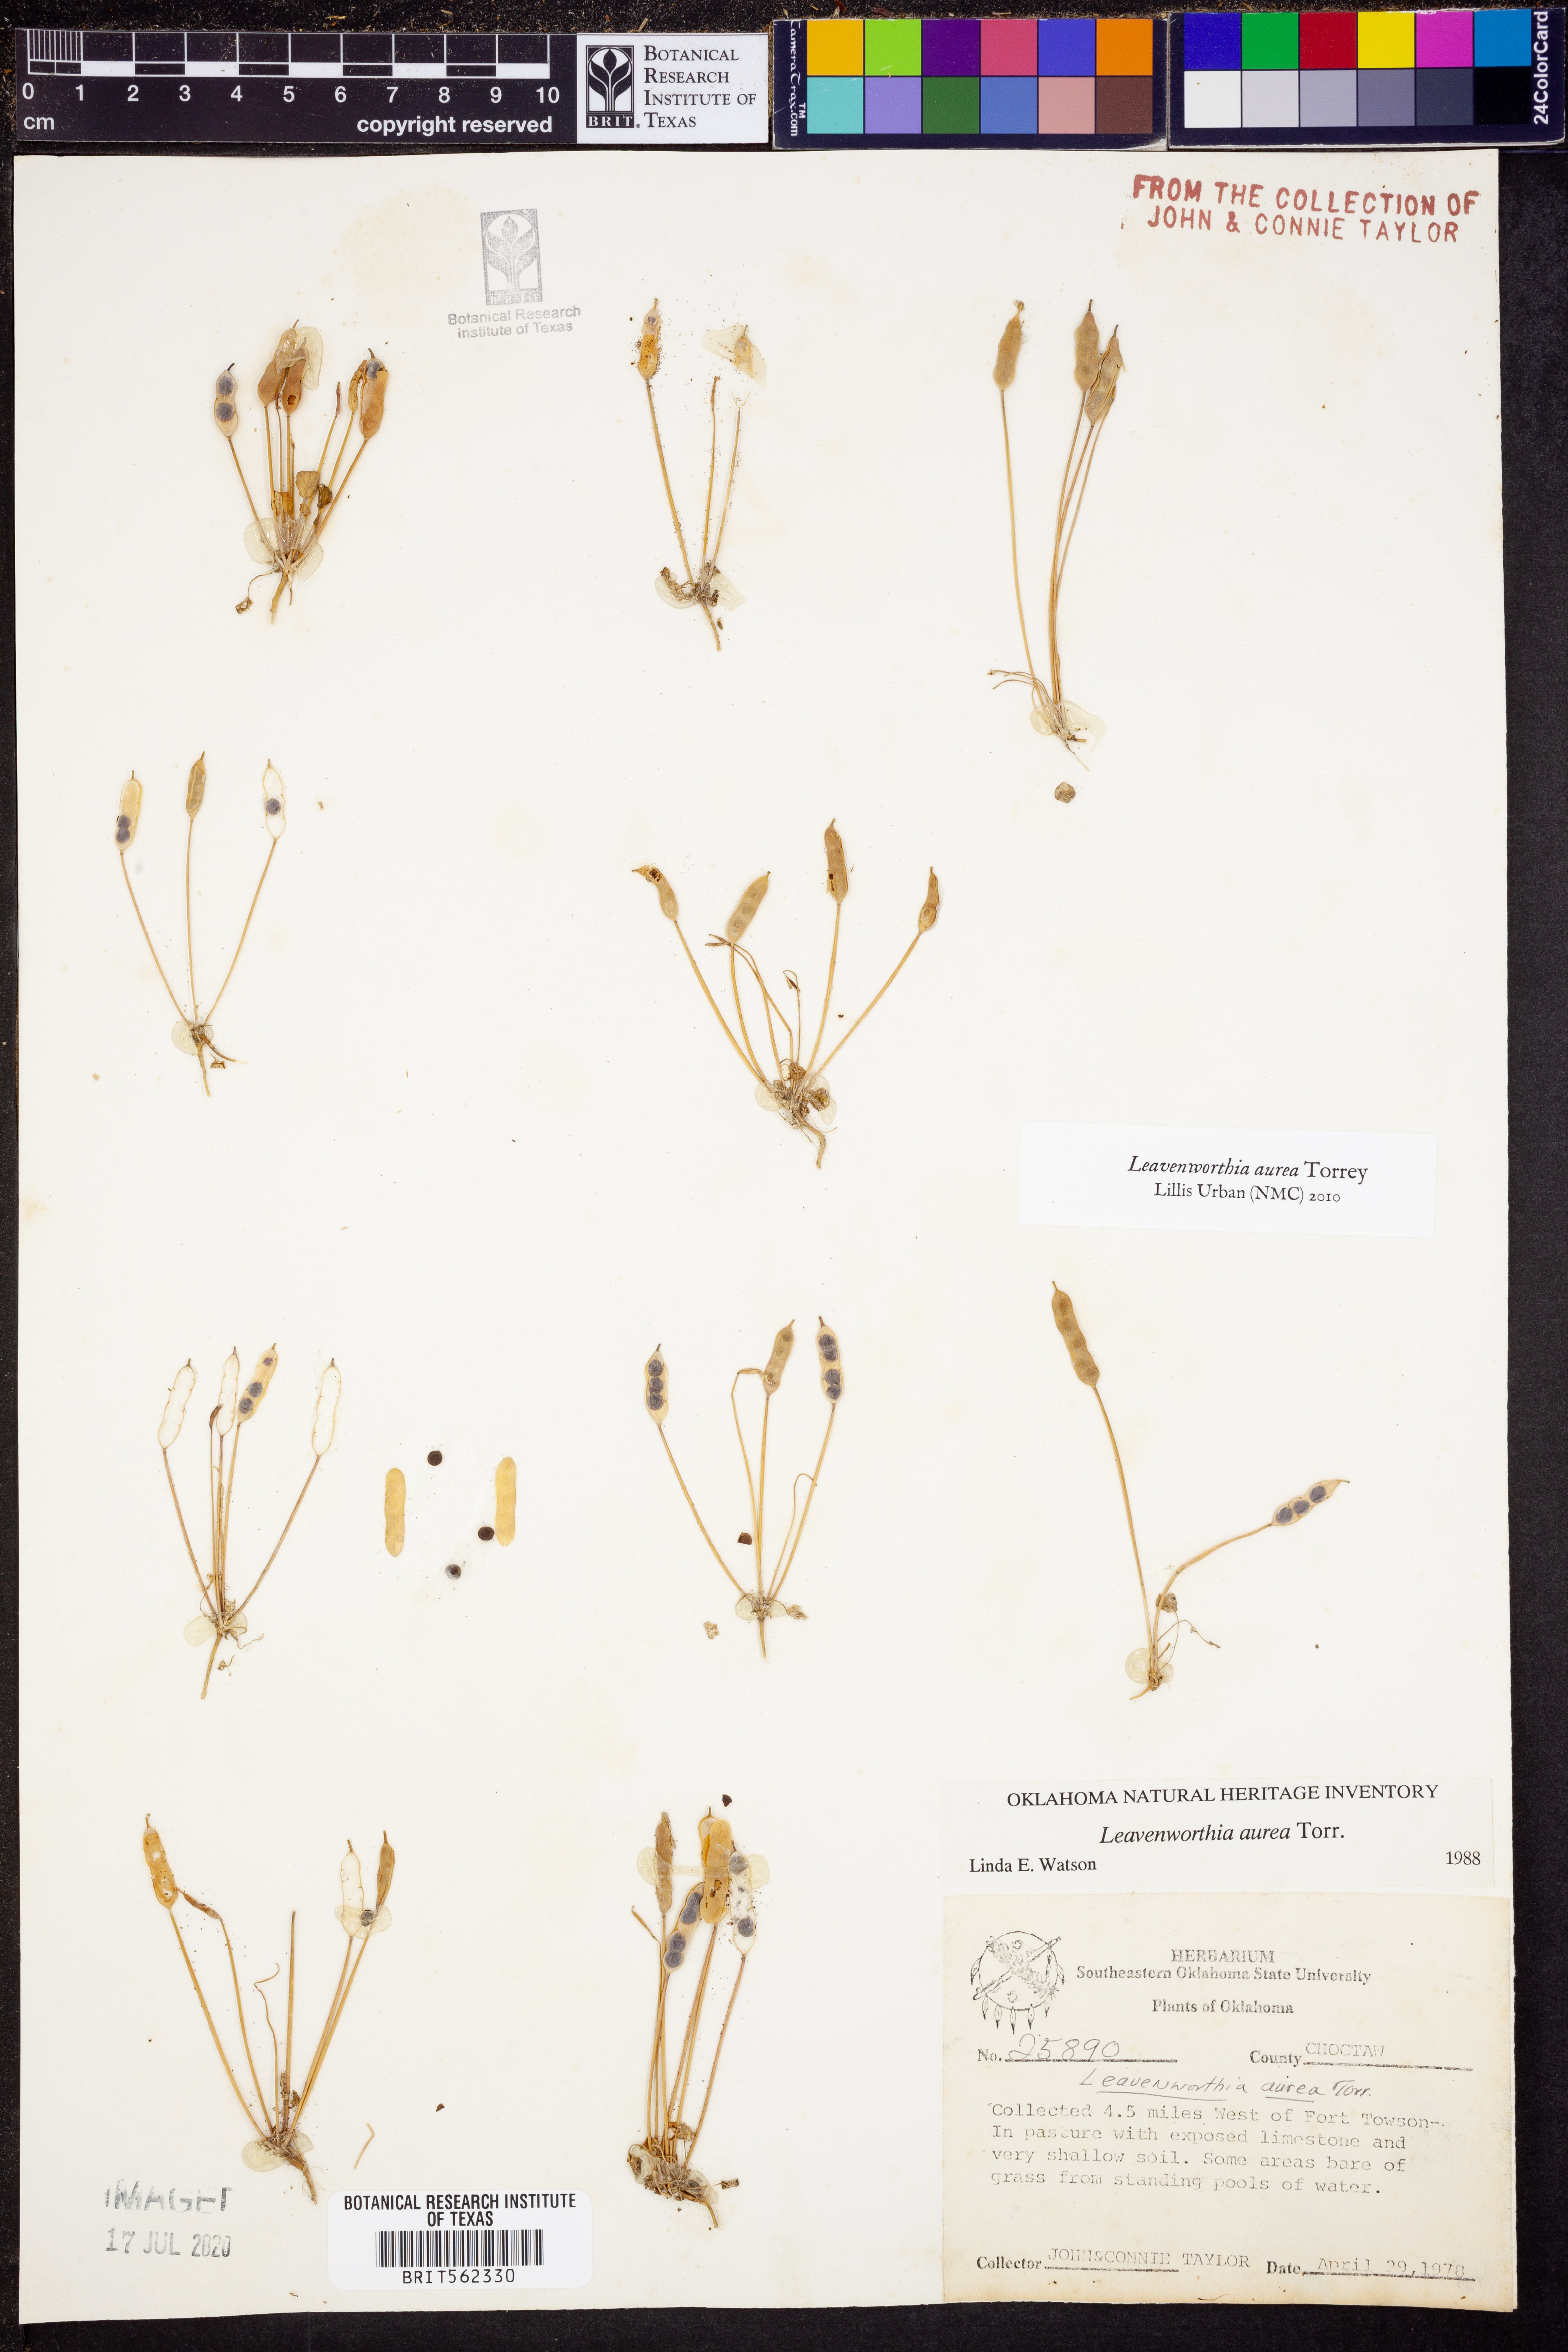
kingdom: Plantae
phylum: Tracheophyta
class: Magnoliopsida
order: Brassicales
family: Brassicaceae
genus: Leavenworthia
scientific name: Leavenworthia aurea
